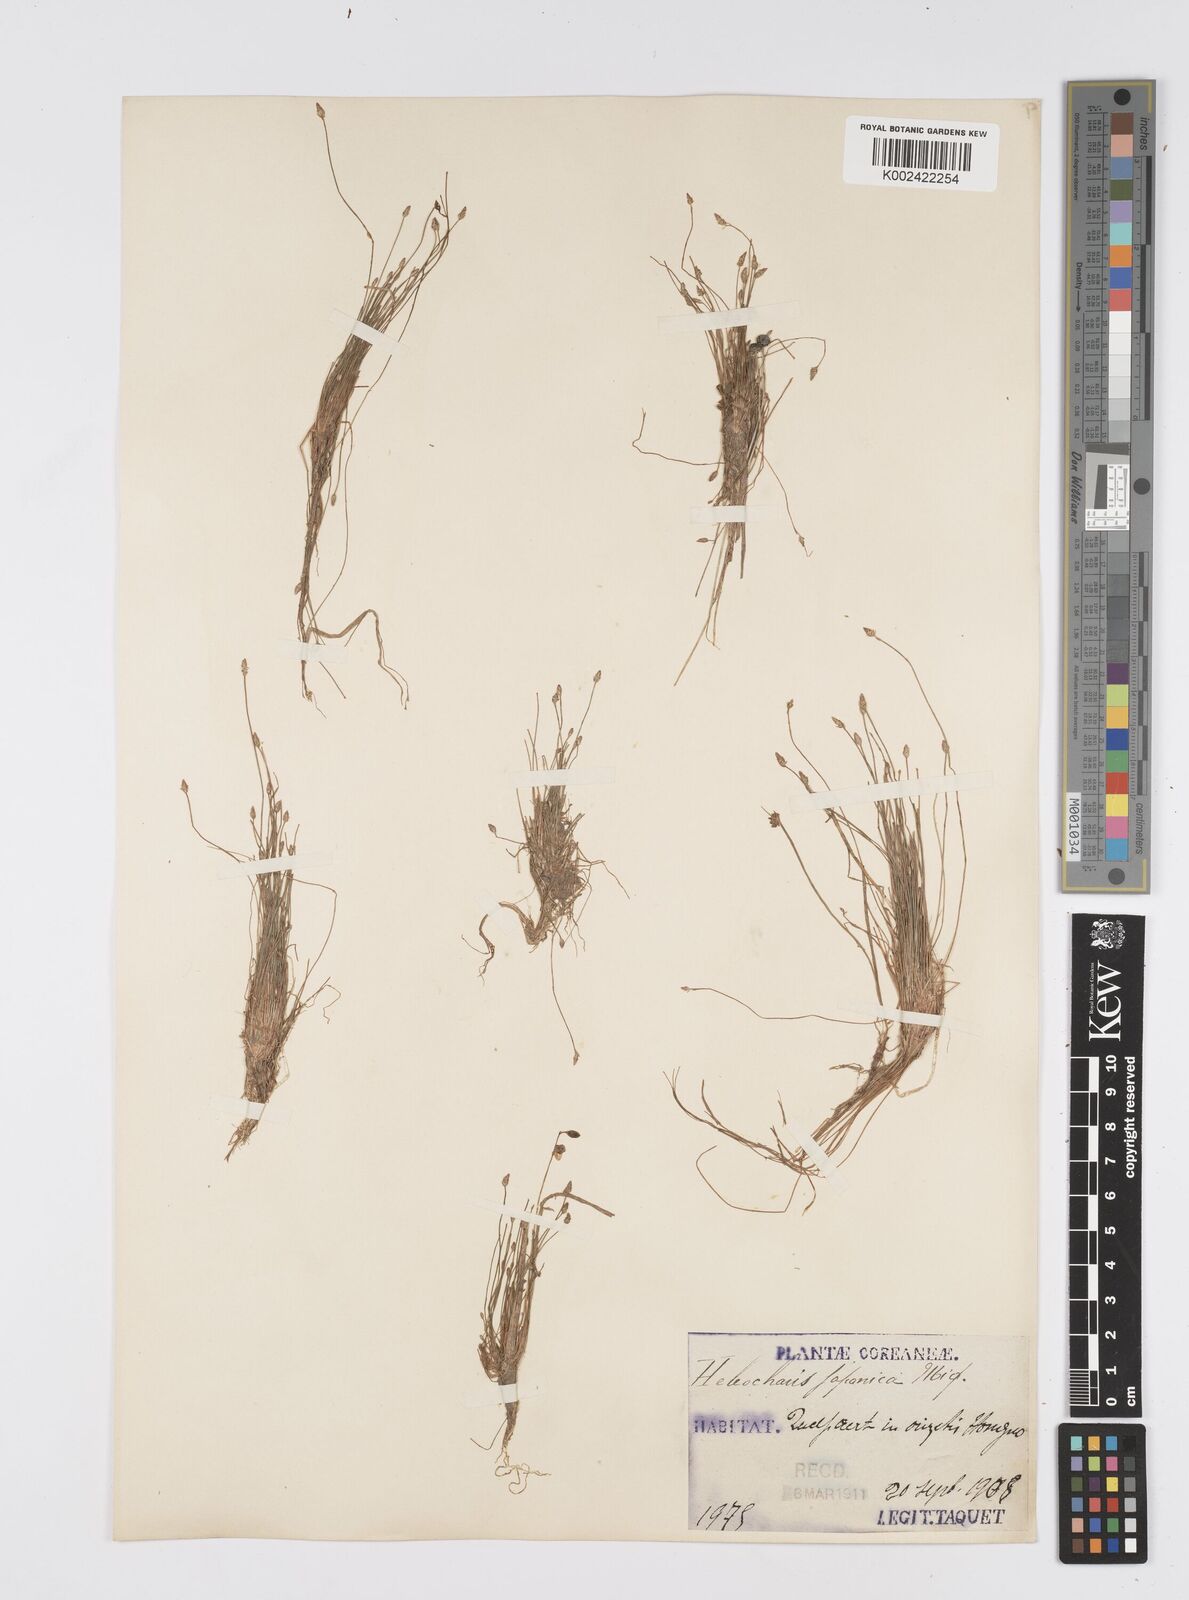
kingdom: Plantae
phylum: Tracheophyta
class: Liliopsida
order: Poales
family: Cyperaceae
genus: Eleocharis
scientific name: Eleocharis pellucida
